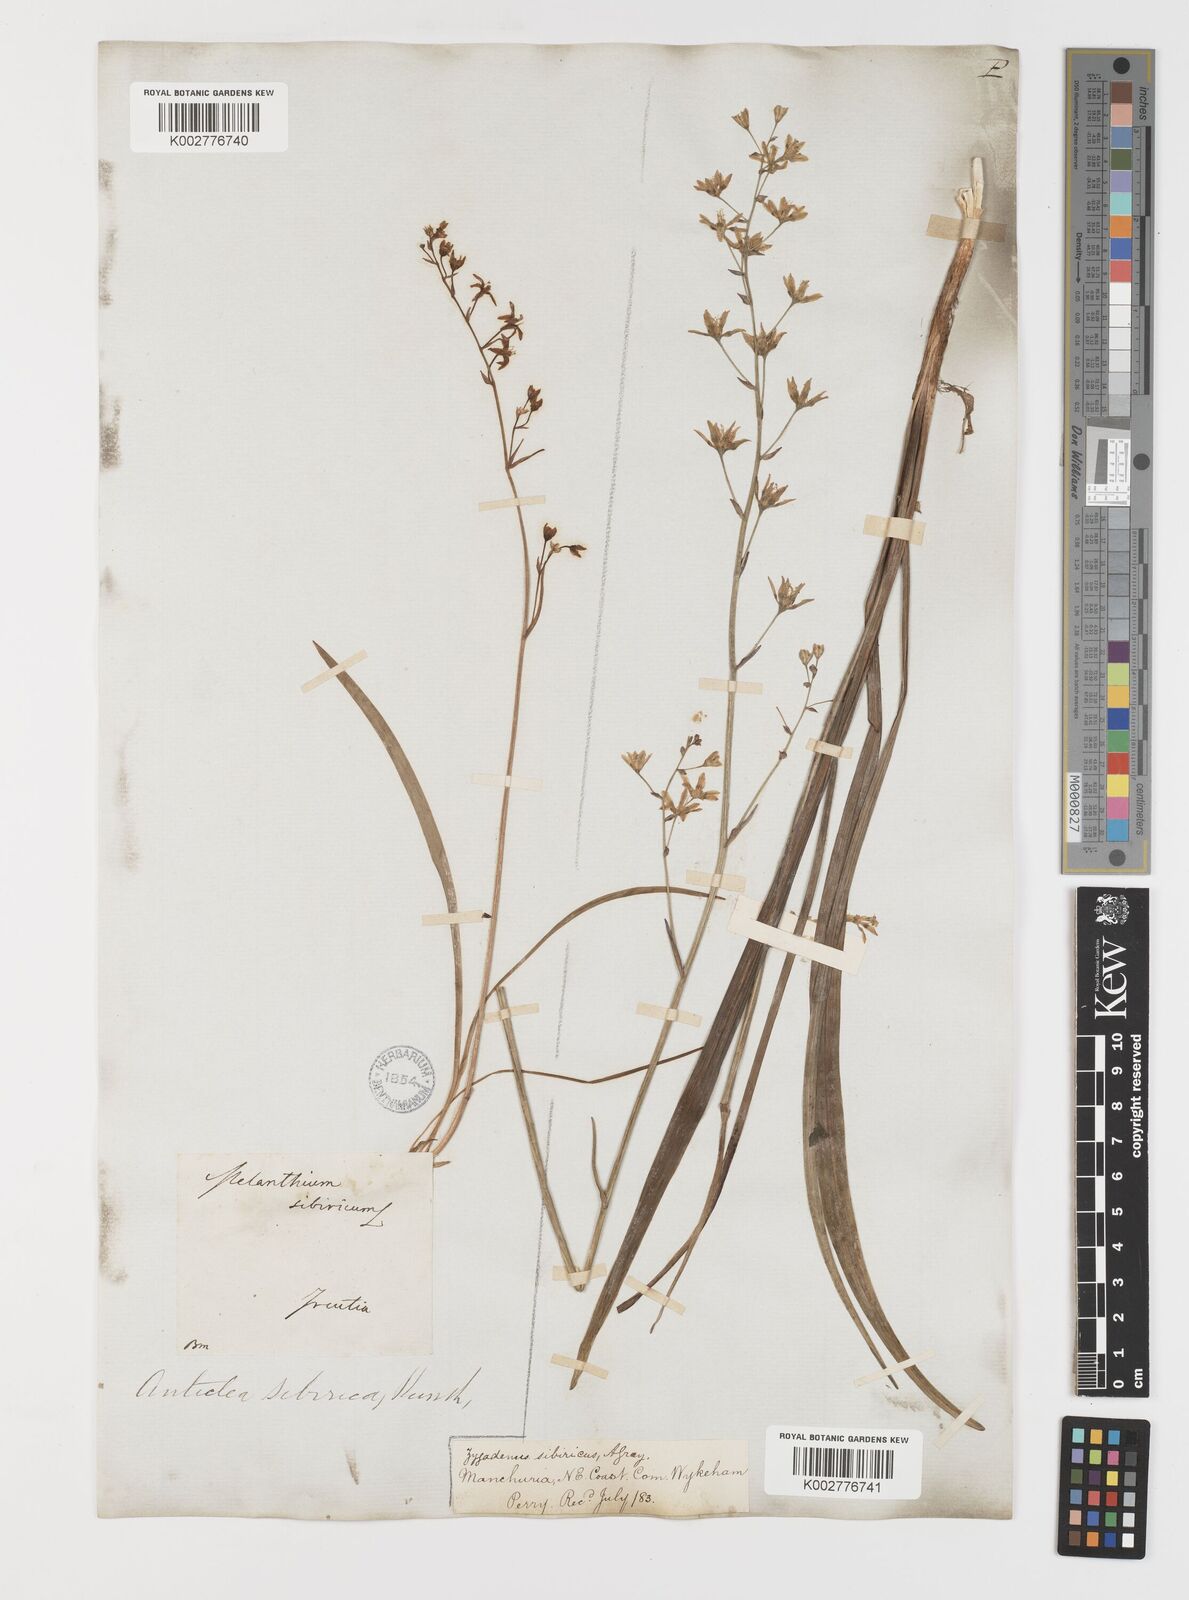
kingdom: Plantae
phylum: Tracheophyta
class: Liliopsida
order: Liliales
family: Melanthiaceae
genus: Anticlea
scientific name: Anticlea sibirica
